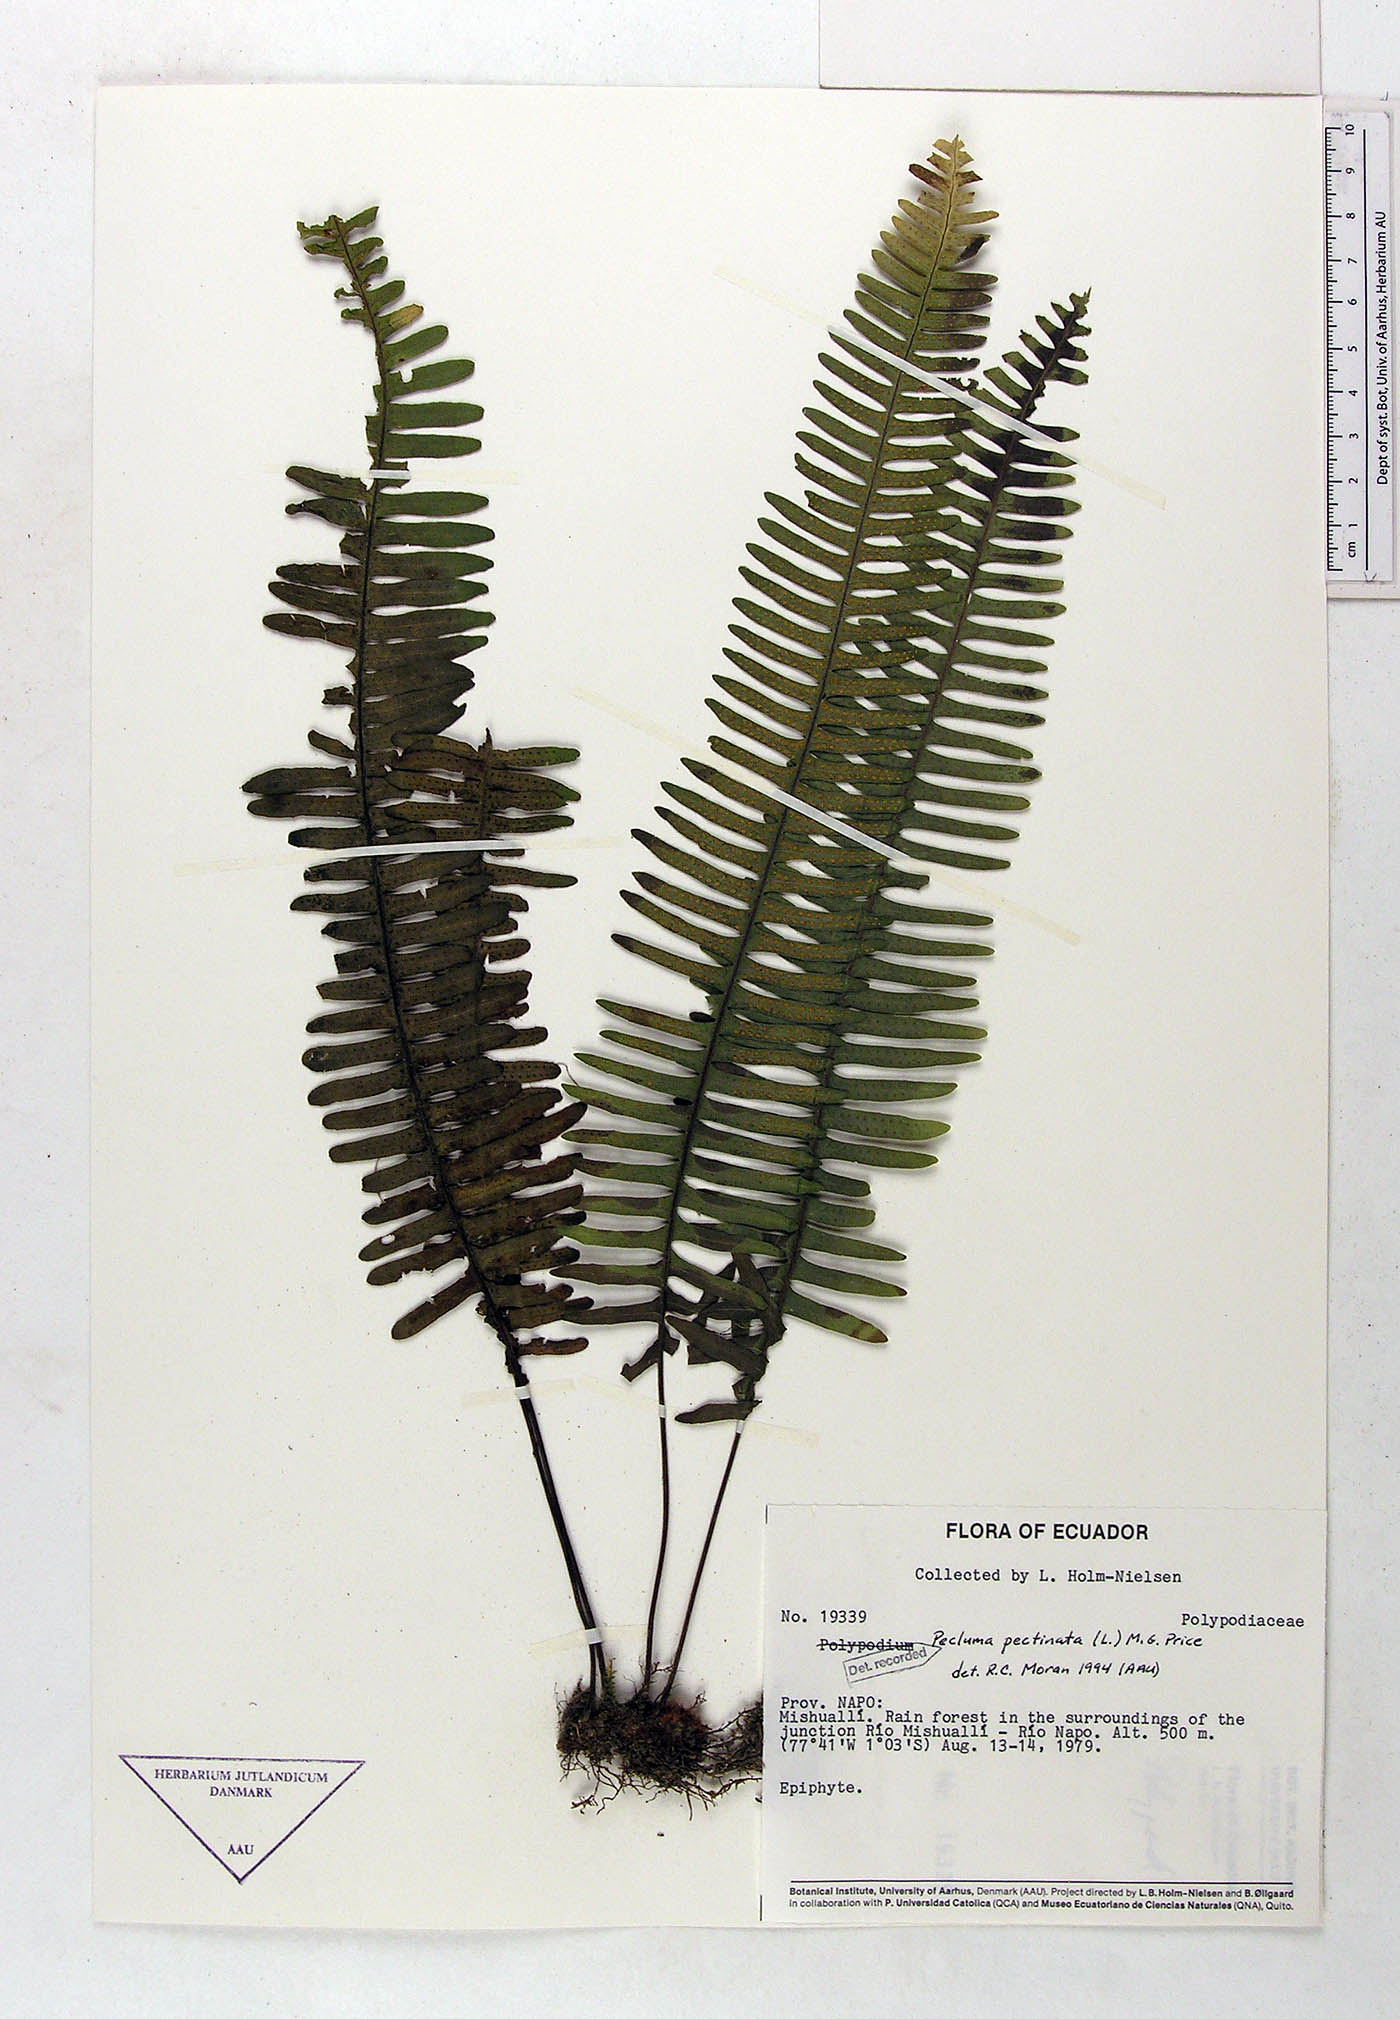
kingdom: Plantae
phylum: Tracheophyta
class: Polypodiopsida
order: Polypodiales
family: Polypodiaceae
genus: Pecluma
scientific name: Pecluma pectinata
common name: Msasa fern
